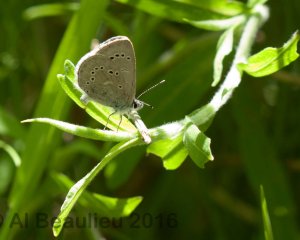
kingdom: Animalia
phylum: Arthropoda
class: Insecta
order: Lepidoptera
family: Lycaenidae
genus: Glaucopsyche
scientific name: Glaucopsyche lygdamus
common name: Silvery Blue
